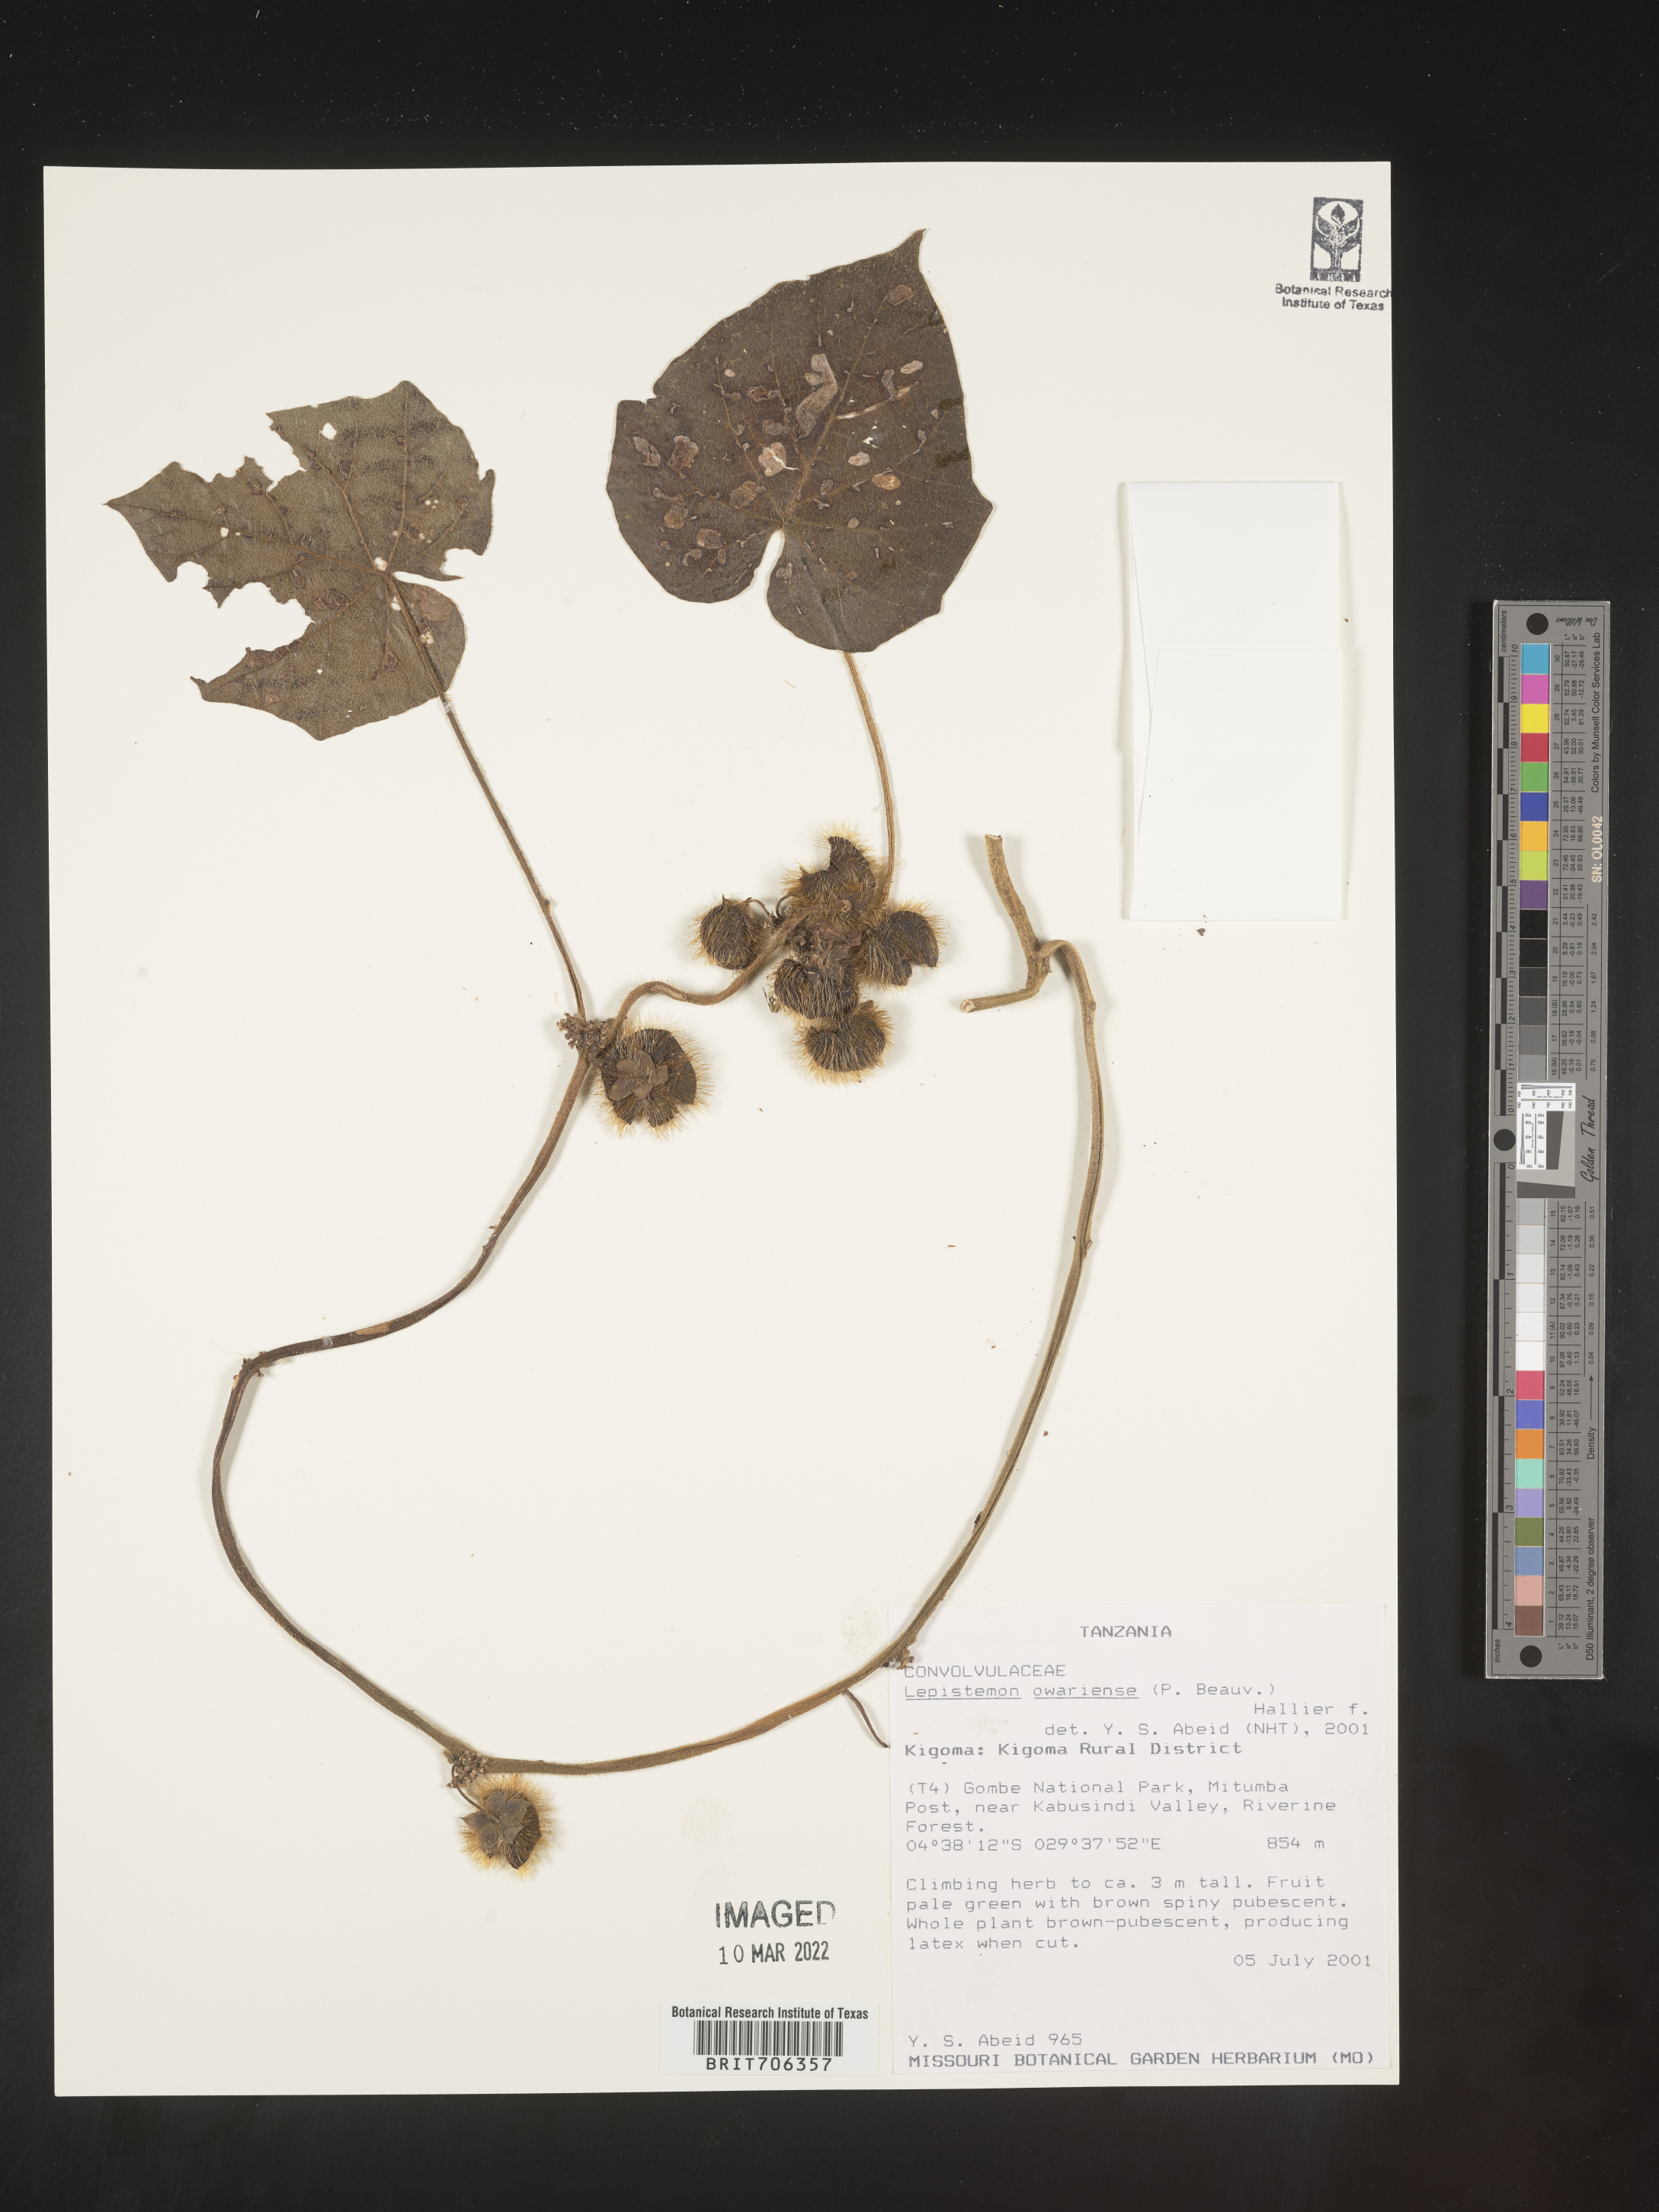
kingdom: Plantae
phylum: Tracheophyta
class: Magnoliopsida
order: Solanales
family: Convolvulaceae
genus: Lepistemon
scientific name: Lepistemon
